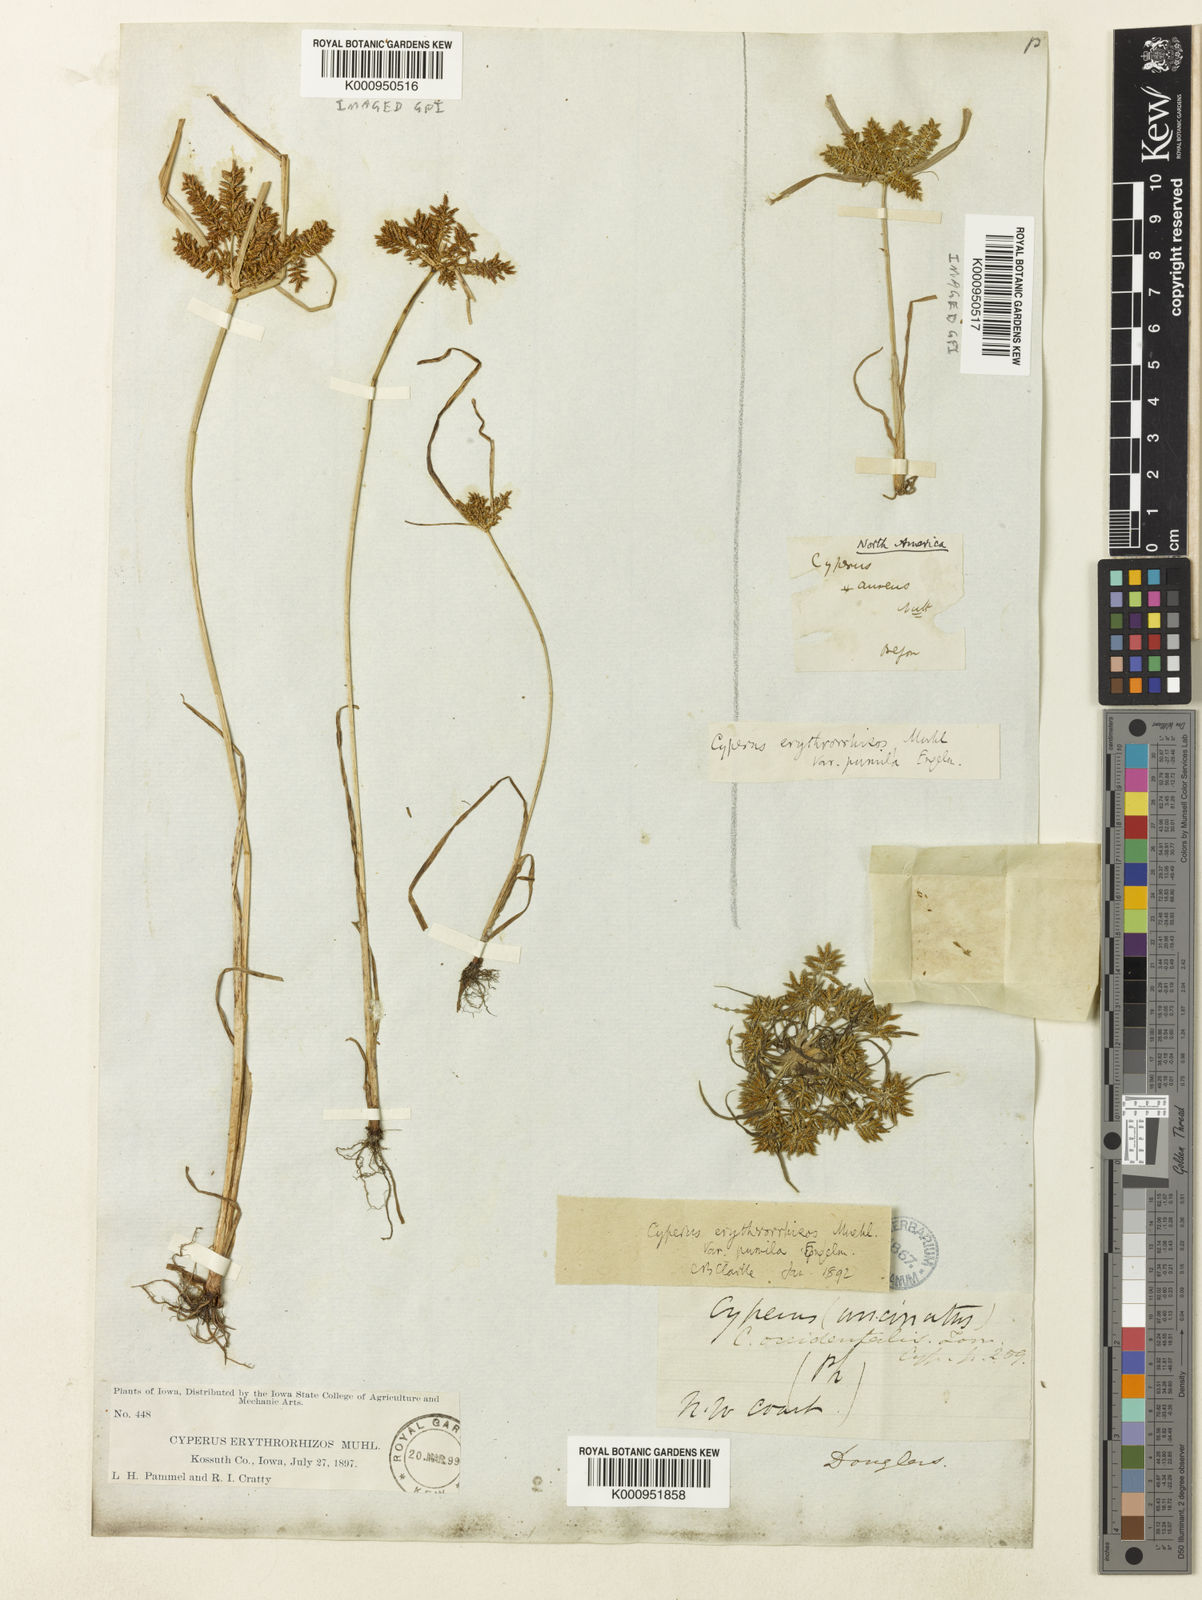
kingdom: Plantae
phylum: Tracheophyta
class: Liliopsida
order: Poales
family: Cyperaceae
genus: Cyperus
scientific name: Cyperus erythrorhizos
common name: Red-root flat sedge
